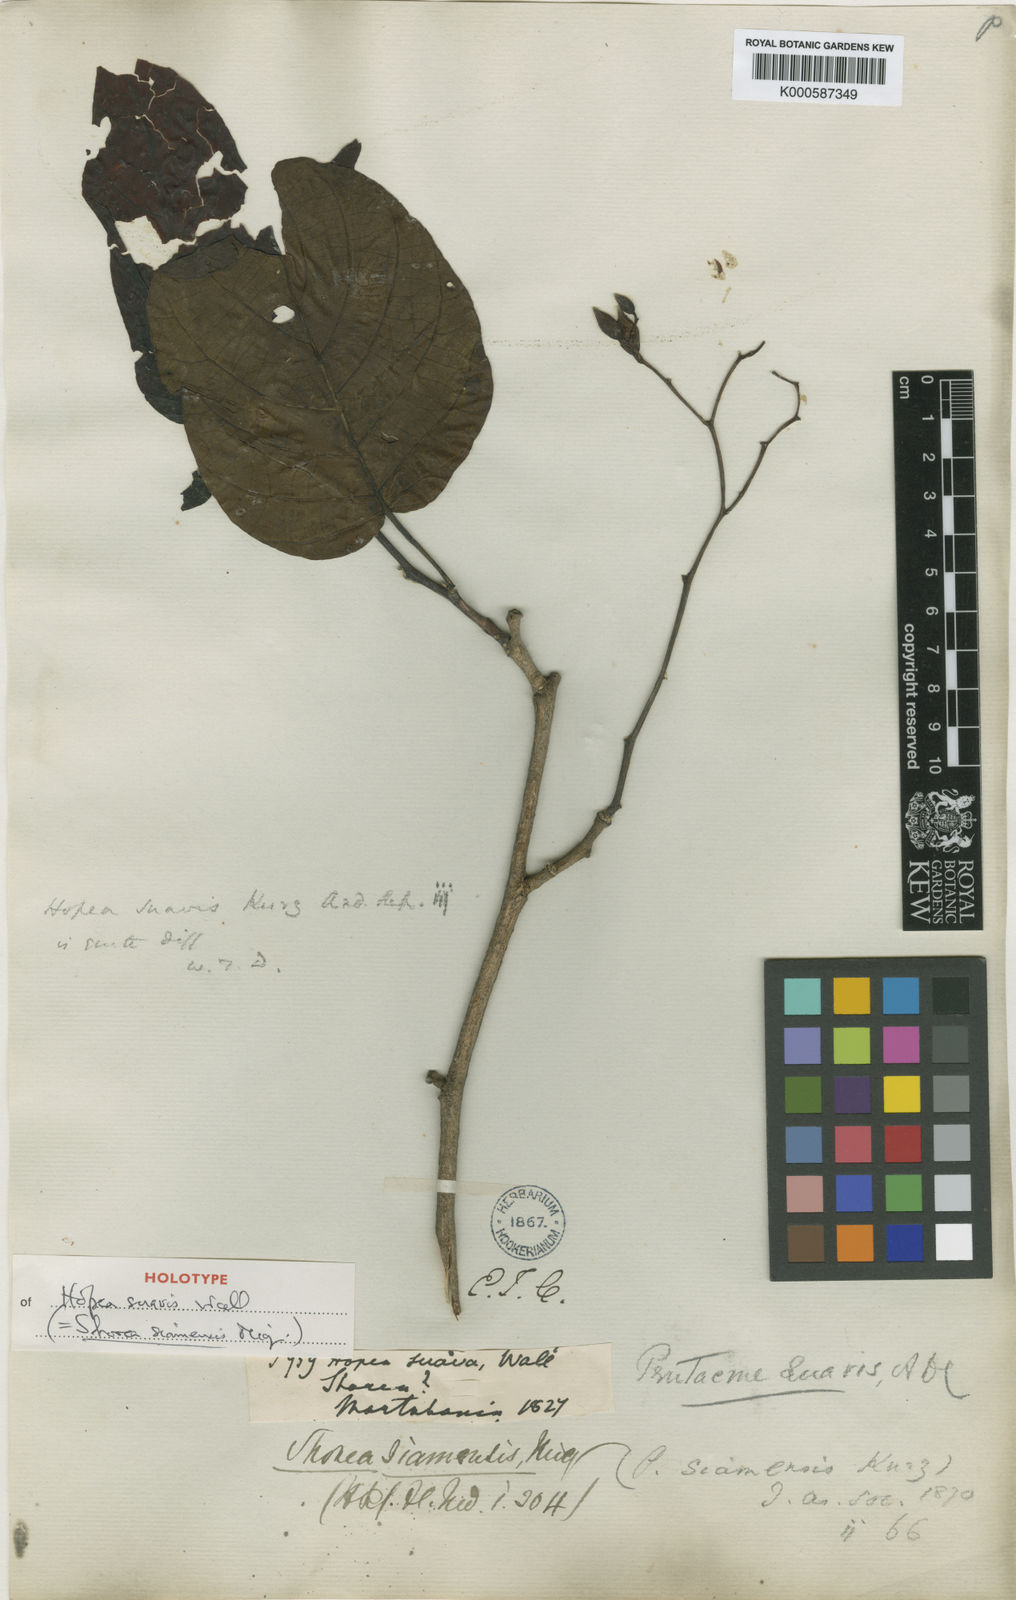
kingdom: Plantae
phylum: Tracheophyta
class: Magnoliopsida
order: Malvales
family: Dipterocarpaceae
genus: Pentacme
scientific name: Pentacme siamensis
